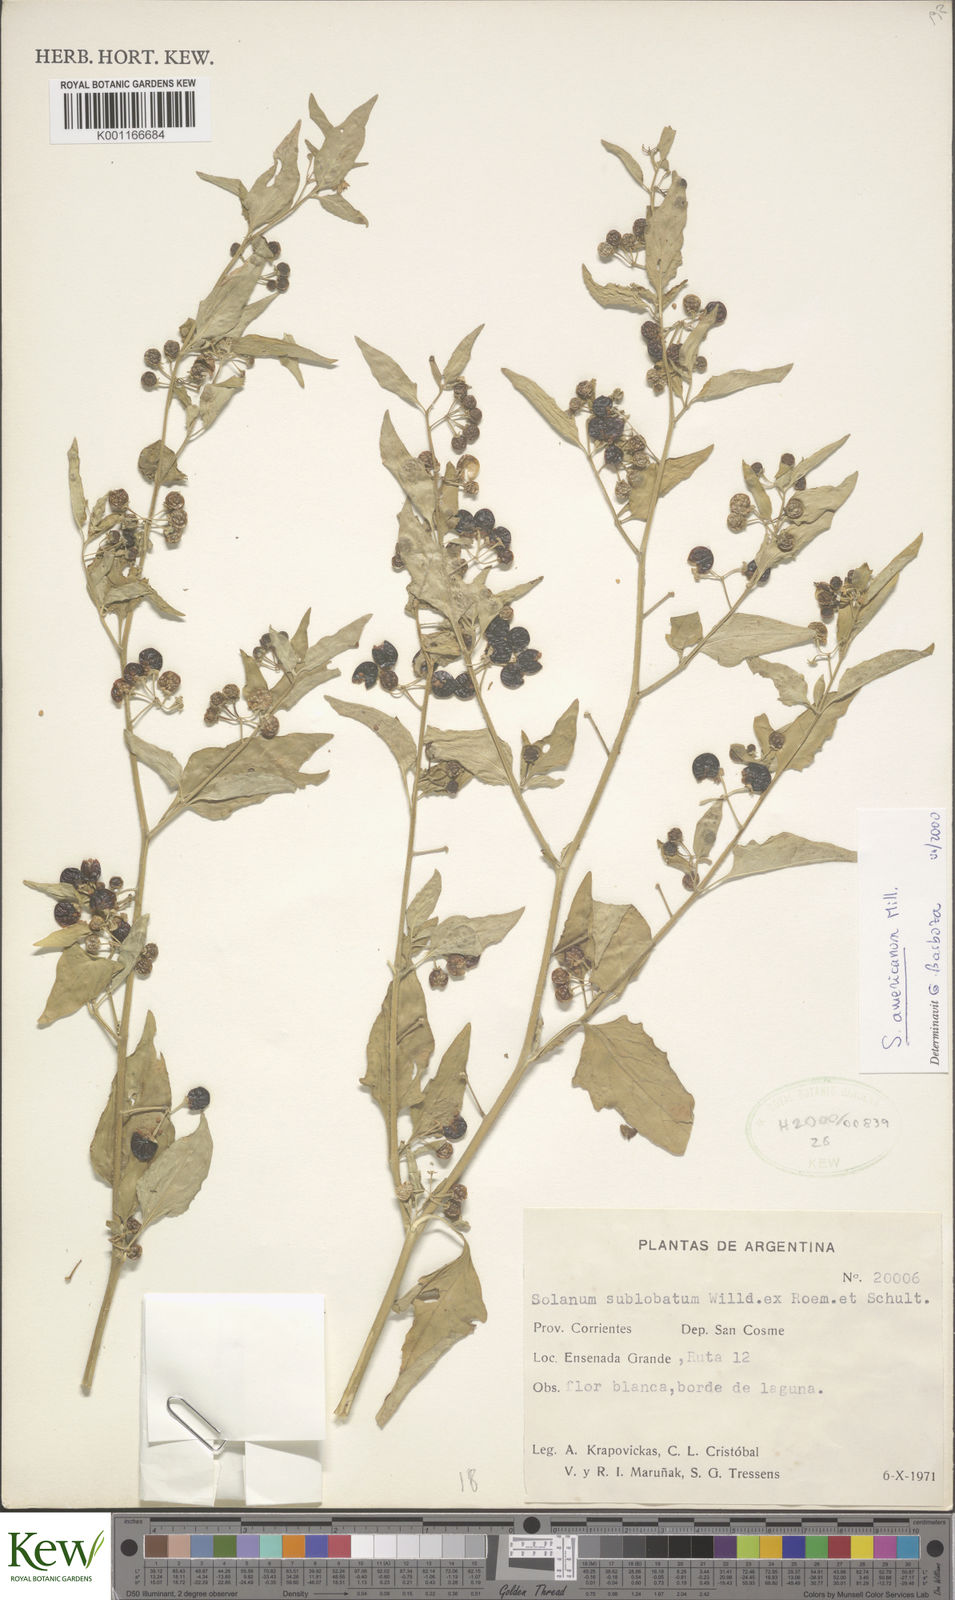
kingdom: Plantae
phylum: Tracheophyta
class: Magnoliopsida
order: Solanales
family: Solanaceae
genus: Solanum
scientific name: Solanum americanum
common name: American black nightshade
